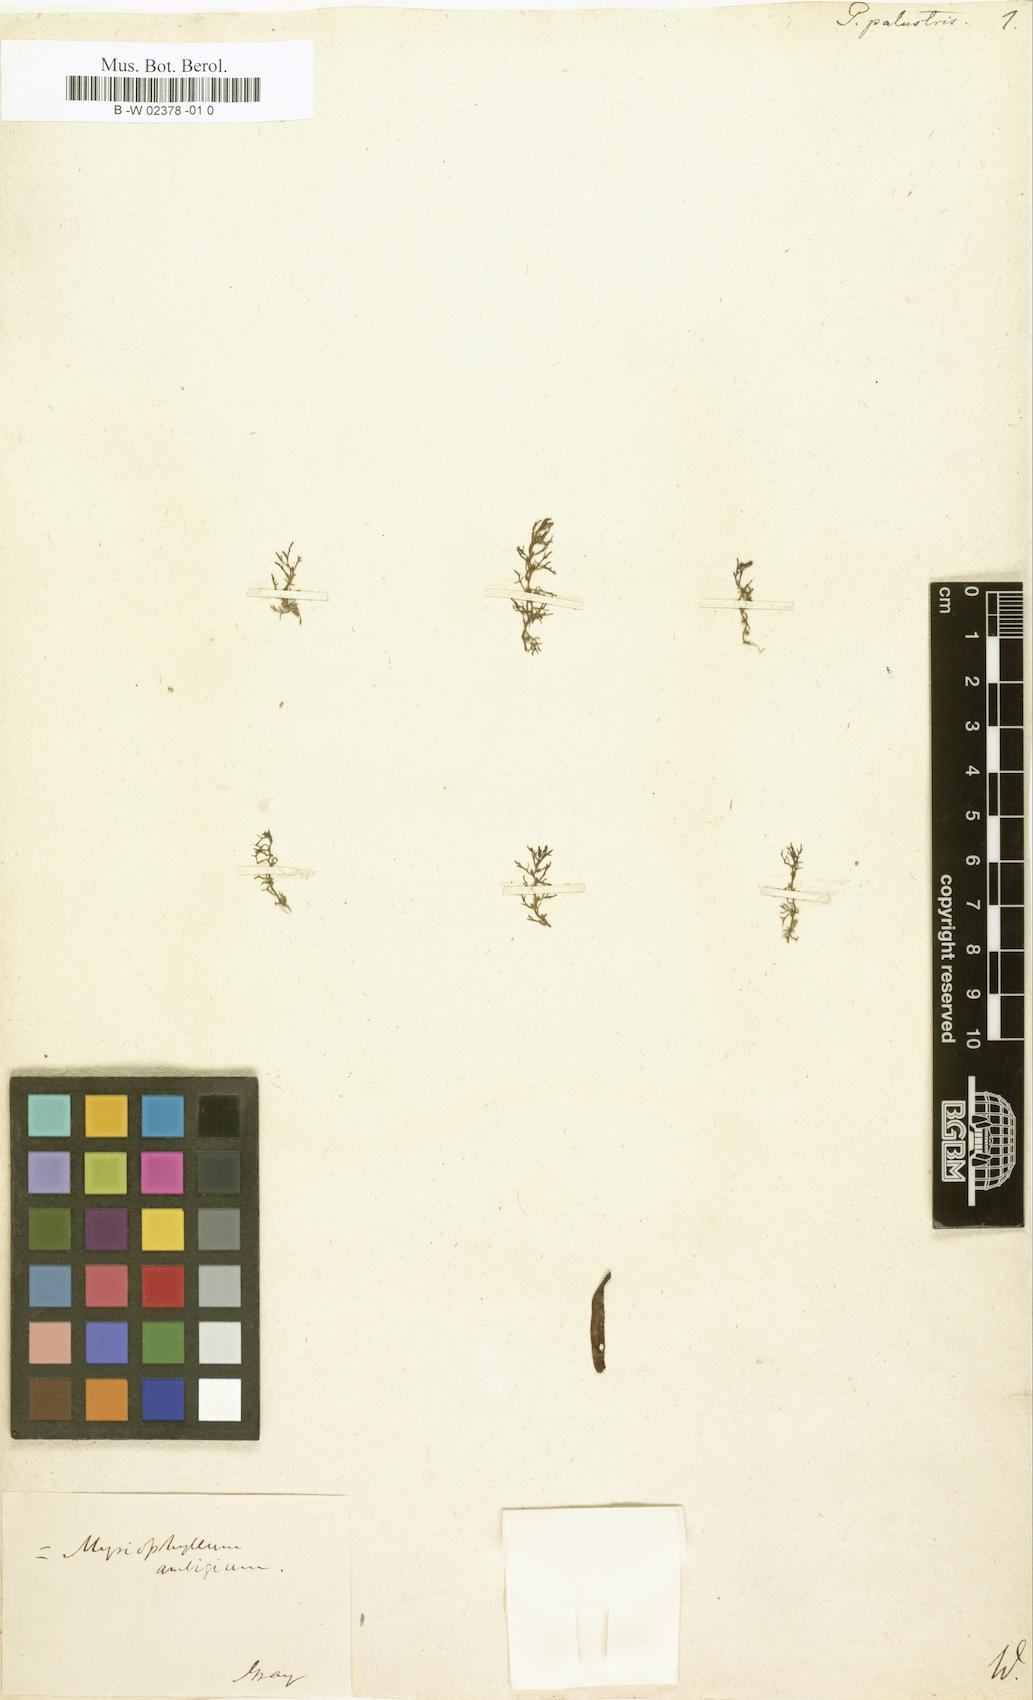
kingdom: Plantae
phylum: Tracheophyta
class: Magnoliopsida
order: Saxifragales
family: Haloragaceae
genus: Proserpinaca
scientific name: Proserpinaca palustris
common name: Marsh mermaidweed
